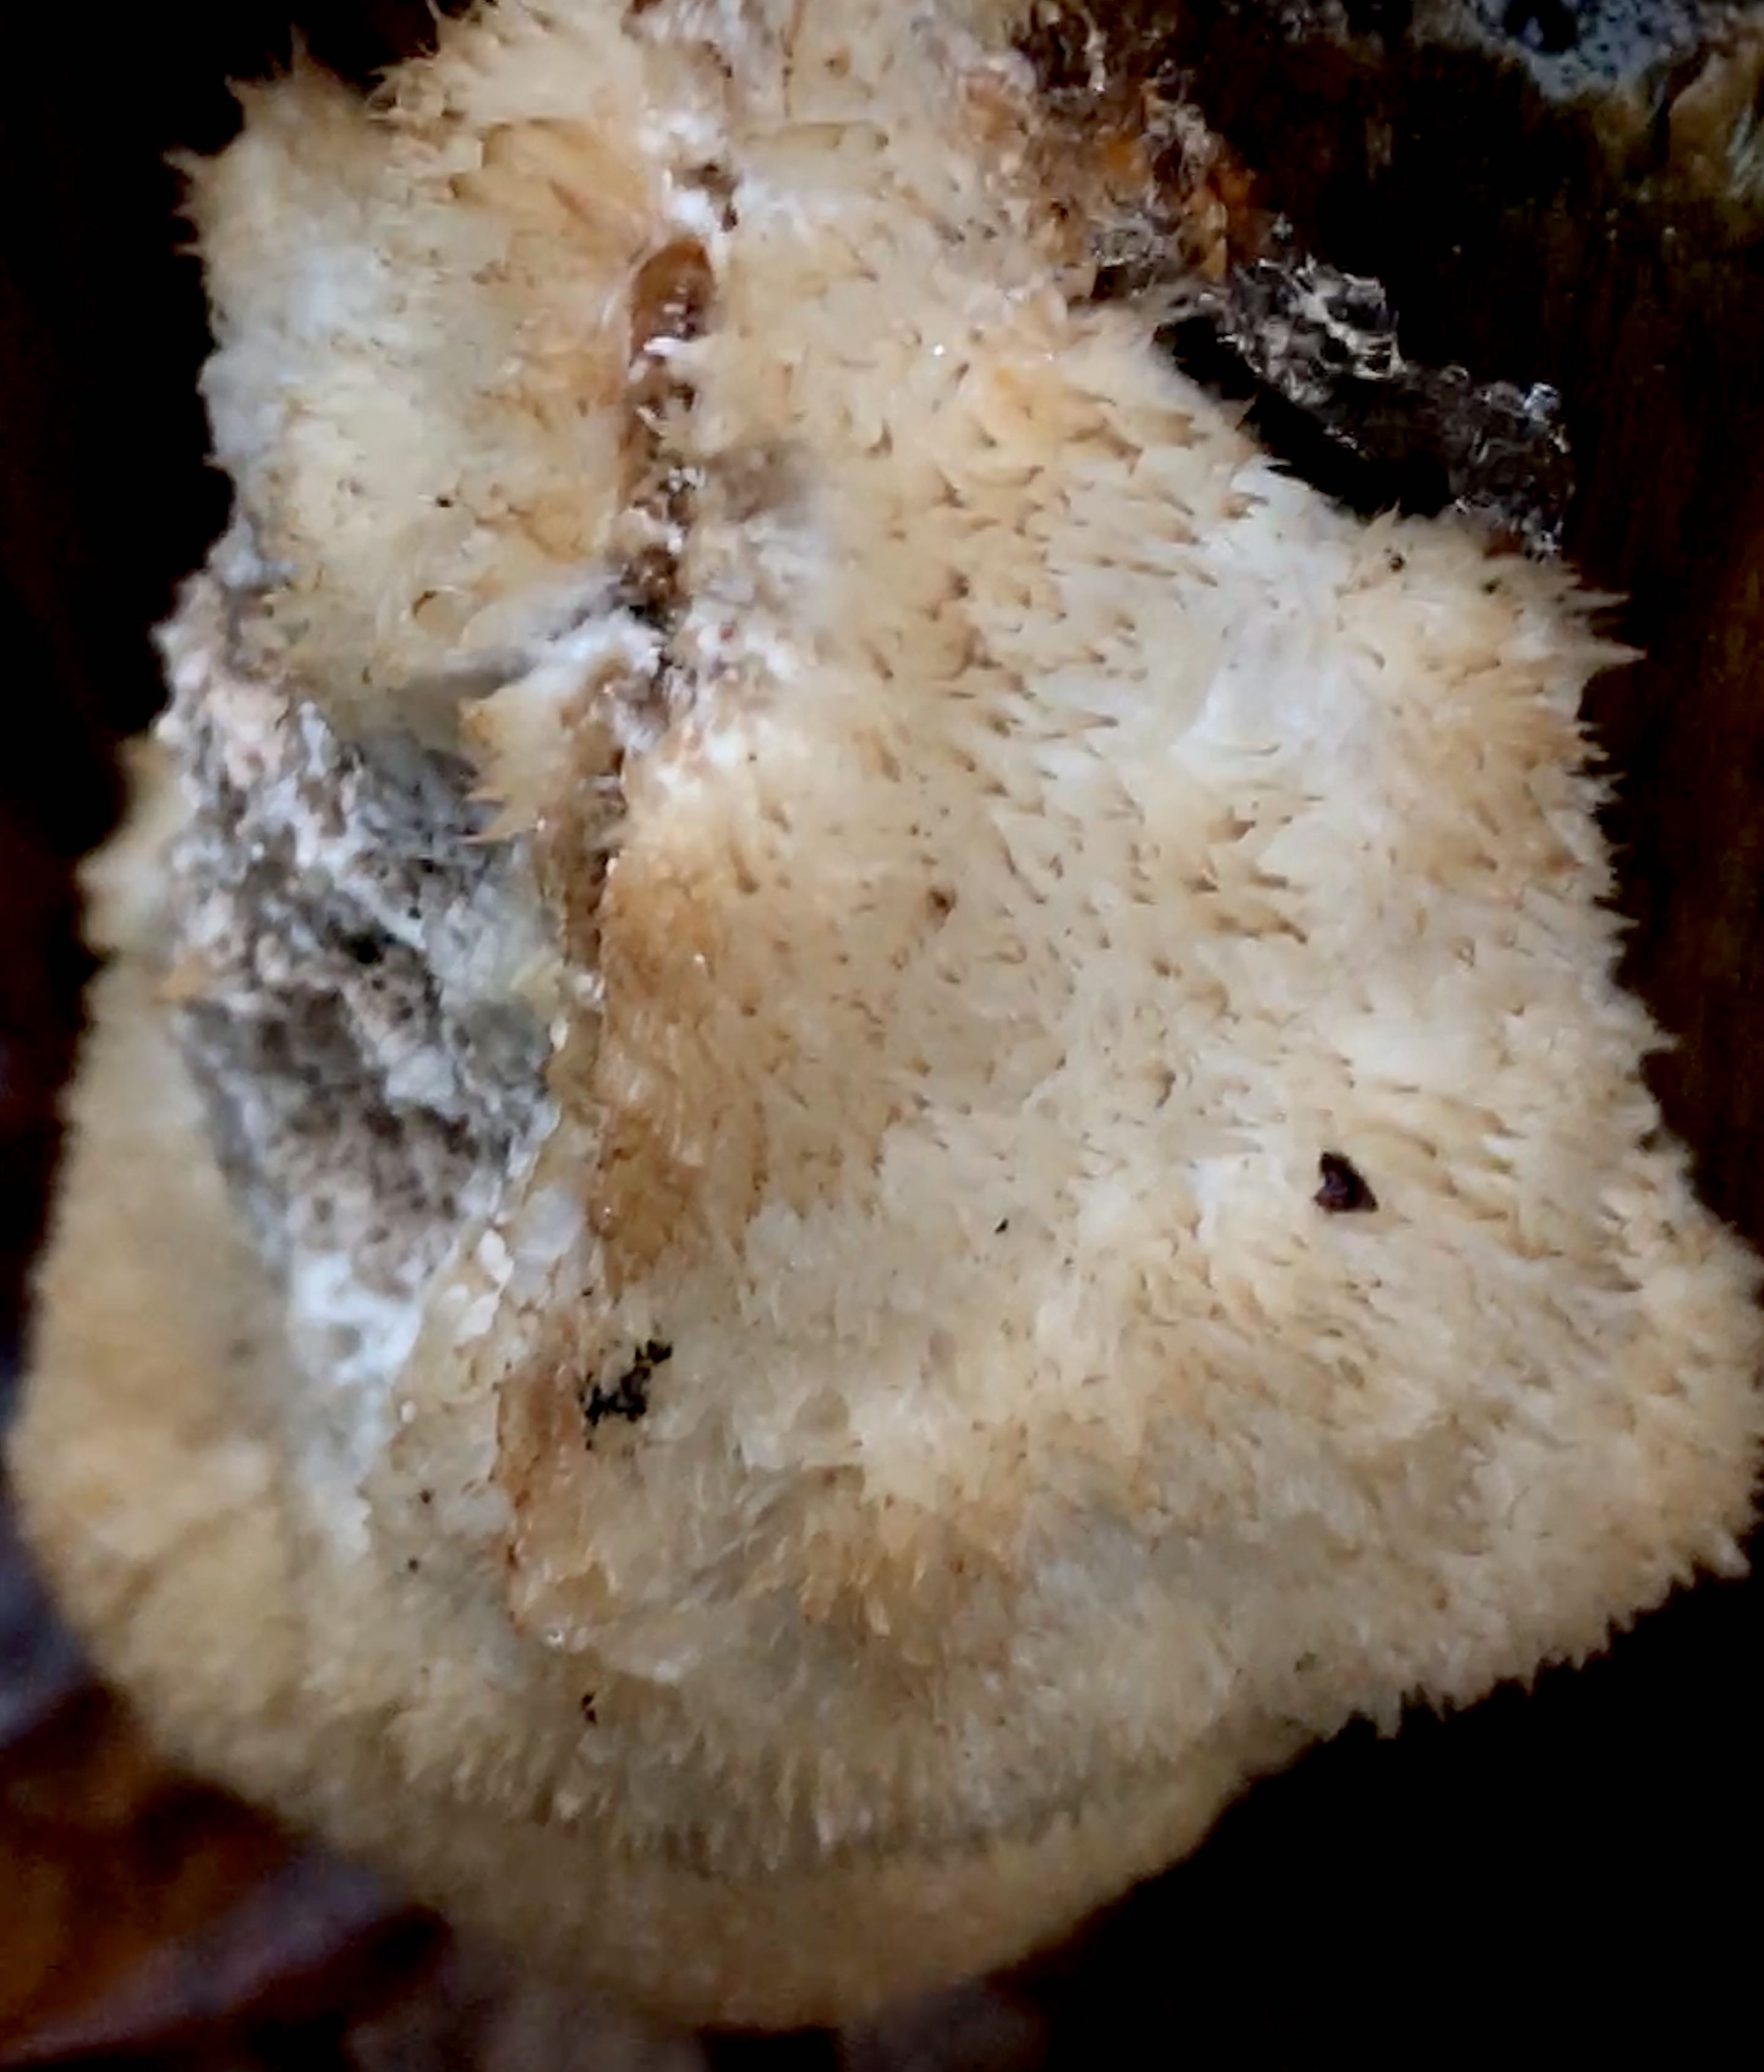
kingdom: Fungi
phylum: Basidiomycota
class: Agaricomycetes
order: Polyporales
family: Dacryobolaceae
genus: Postia
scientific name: Postia ptychogaster
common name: støvende kødporesvamp
